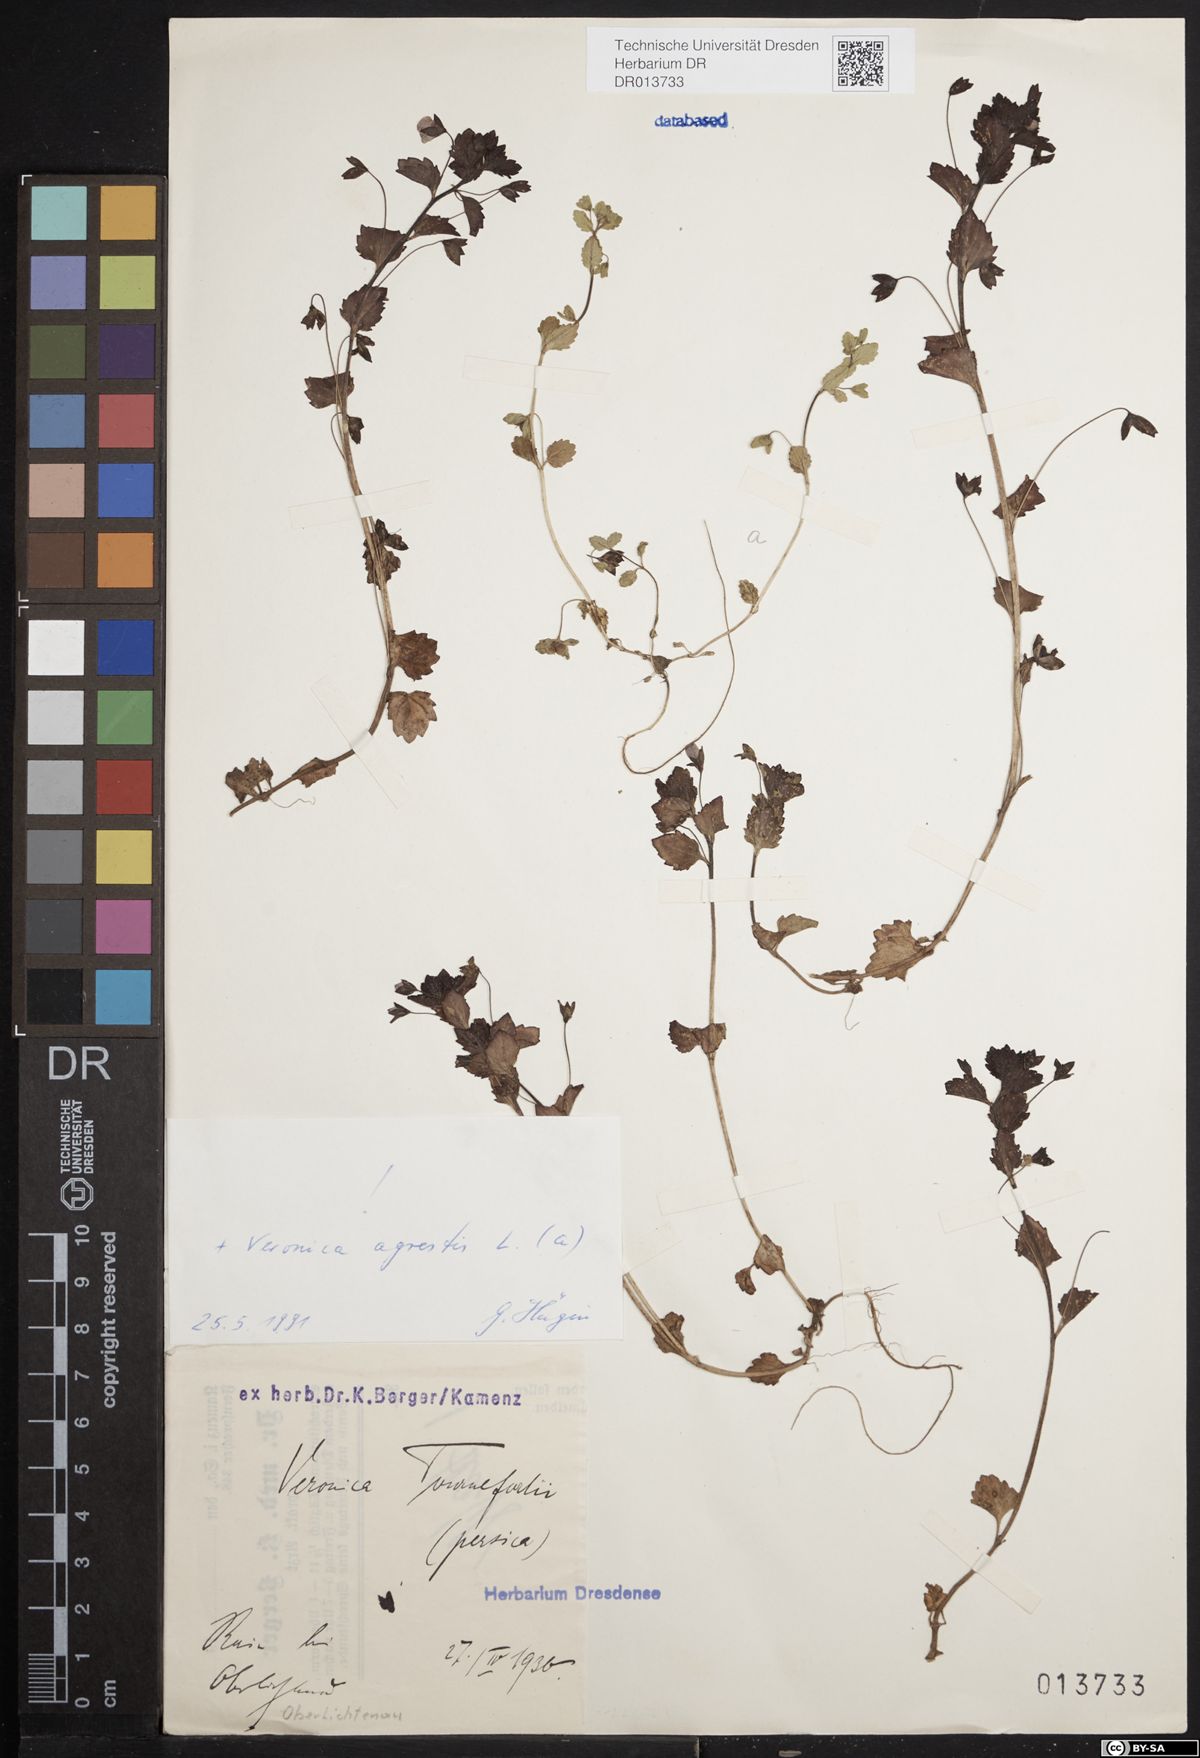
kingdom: Plantae
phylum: Tracheophyta
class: Magnoliopsida
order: Lamiales
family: Plantaginaceae
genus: Veronica
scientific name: Veronica agrestis
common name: Green field-speedwell
